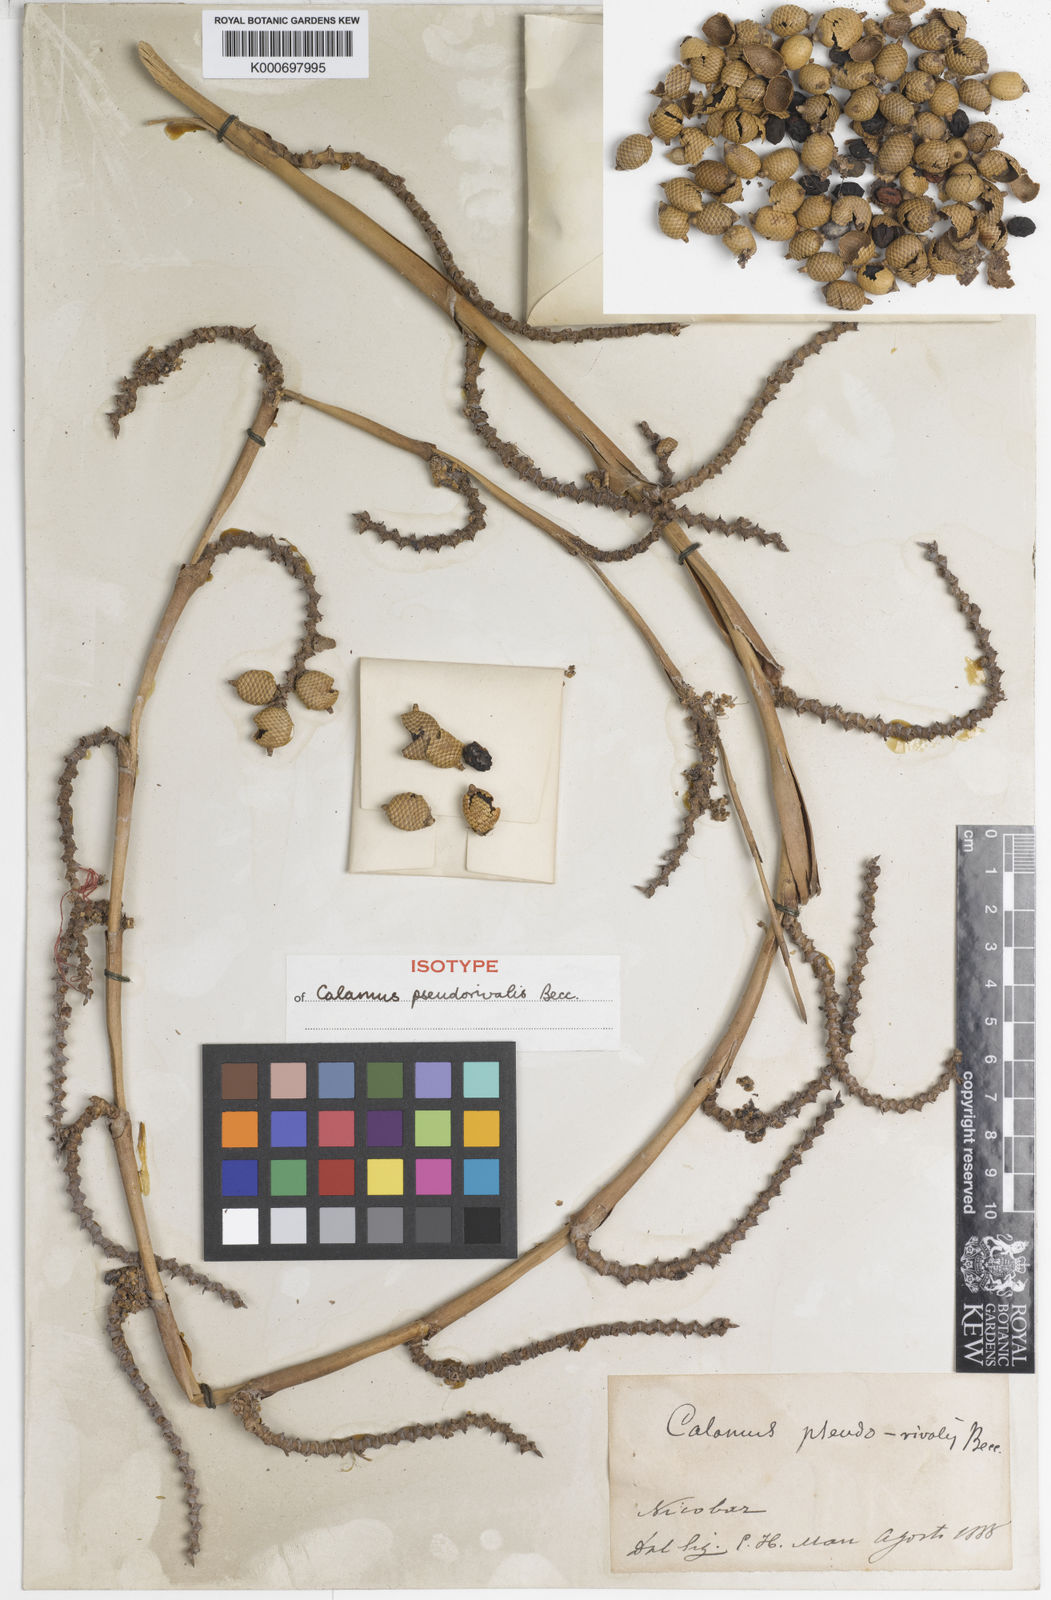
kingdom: Plantae
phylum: Tracheophyta
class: Liliopsida
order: Arecales
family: Arecaceae
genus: Calamus
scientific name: Calamus nicobaricus
